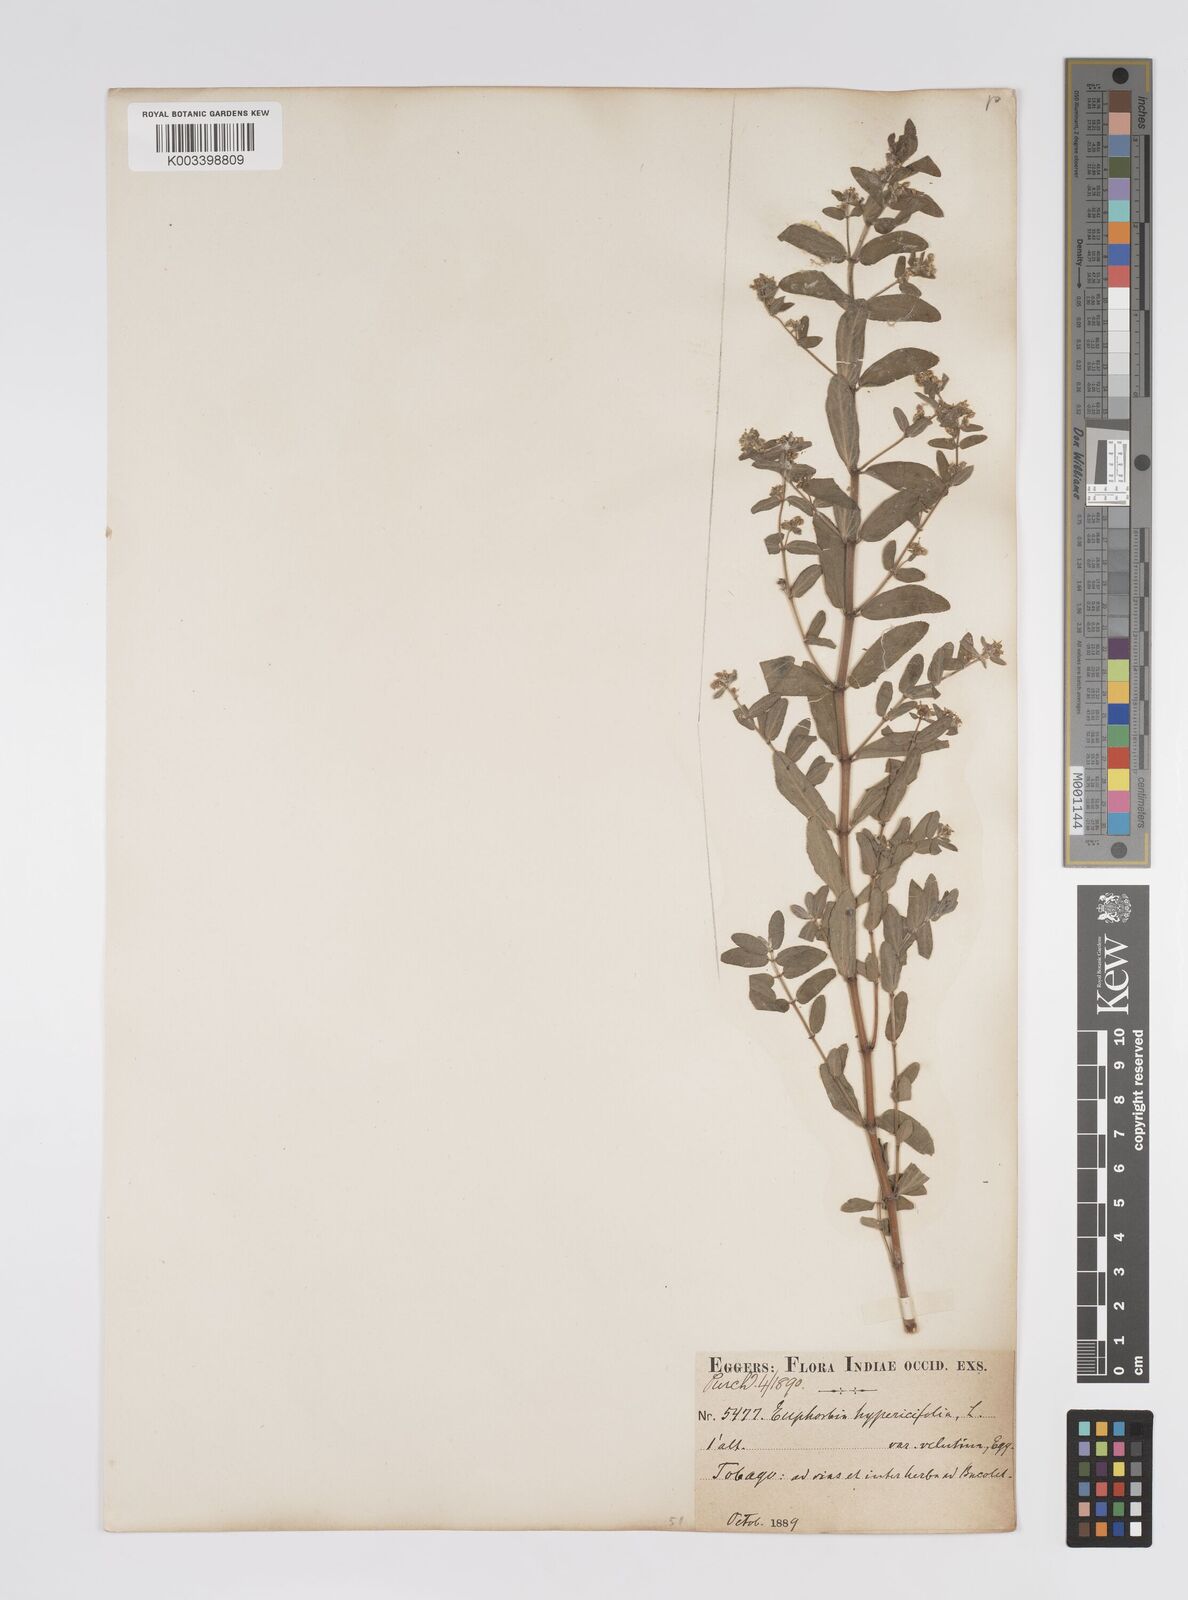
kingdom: Plantae
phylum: Tracheophyta
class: Magnoliopsida
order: Malpighiales
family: Euphorbiaceae
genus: Euphorbia
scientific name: Euphorbia lasiocarpa
